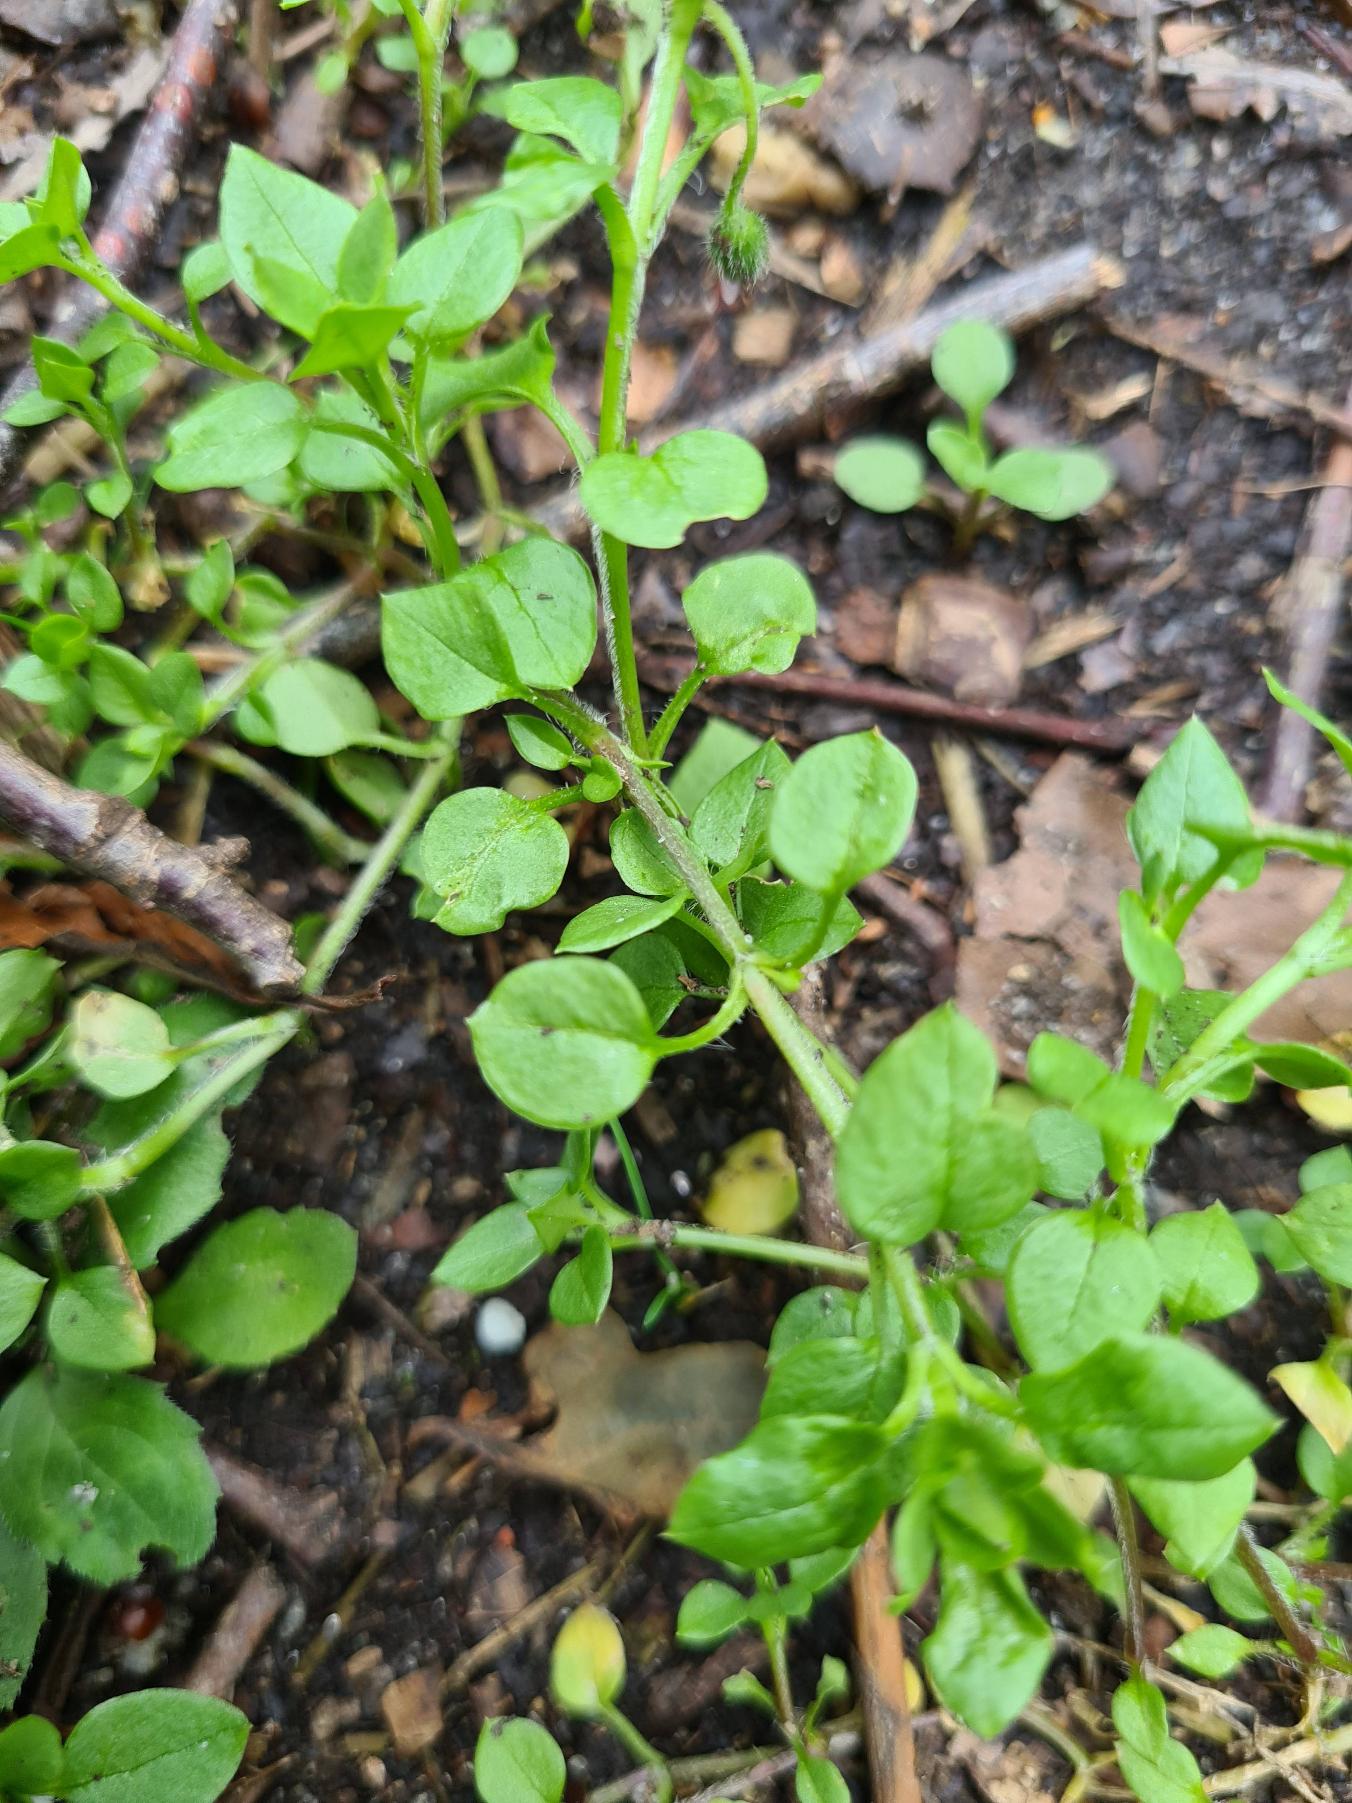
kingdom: Plantae
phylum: Tracheophyta
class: Magnoliopsida
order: Caryophyllales
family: Caryophyllaceae
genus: Stellaria
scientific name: Stellaria media
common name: Almindelig fuglegræs
